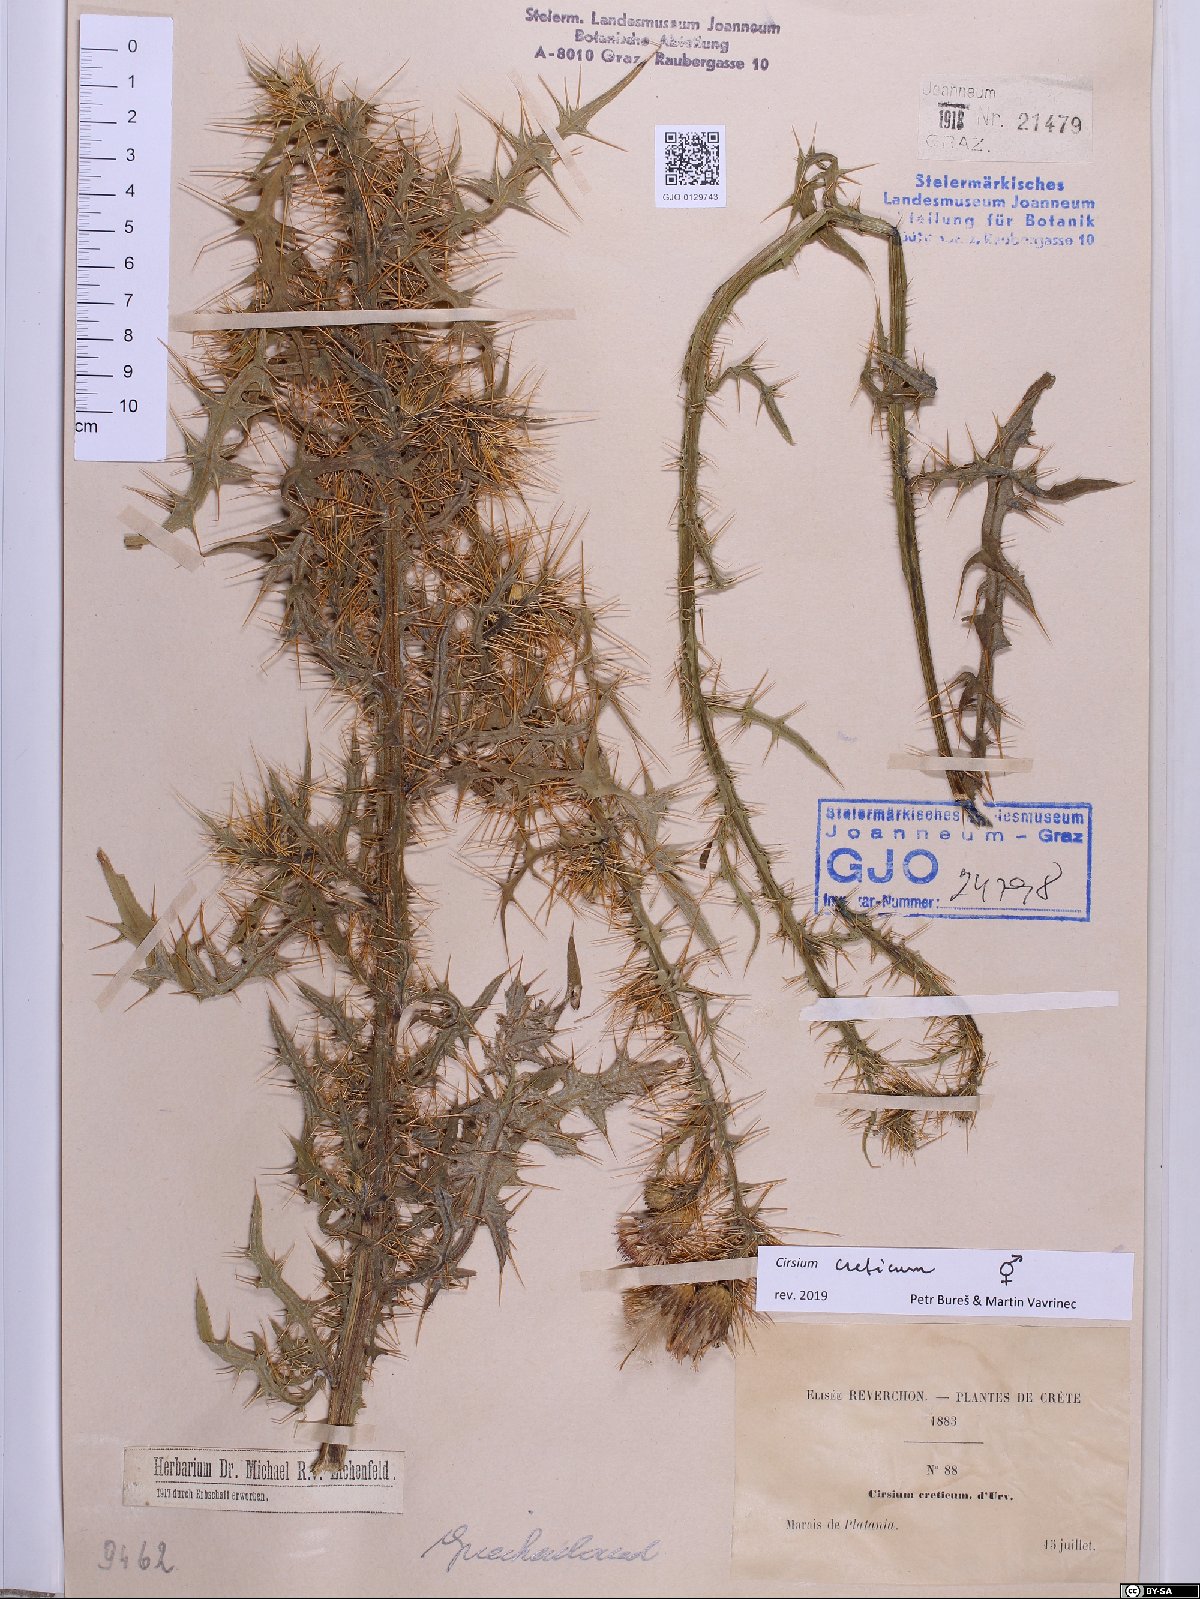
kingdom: Plantae
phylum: Tracheophyta
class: Magnoliopsida
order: Asterales
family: Asteraceae
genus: Cirsium
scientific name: Cirsium creticum
